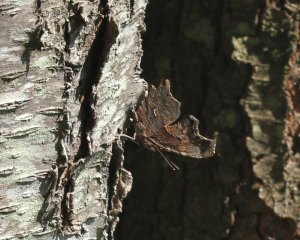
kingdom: Animalia
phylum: Arthropoda
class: Insecta
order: Lepidoptera
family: Nymphalidae
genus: Polygonia
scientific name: Polygonia progne
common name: Gray Comma
